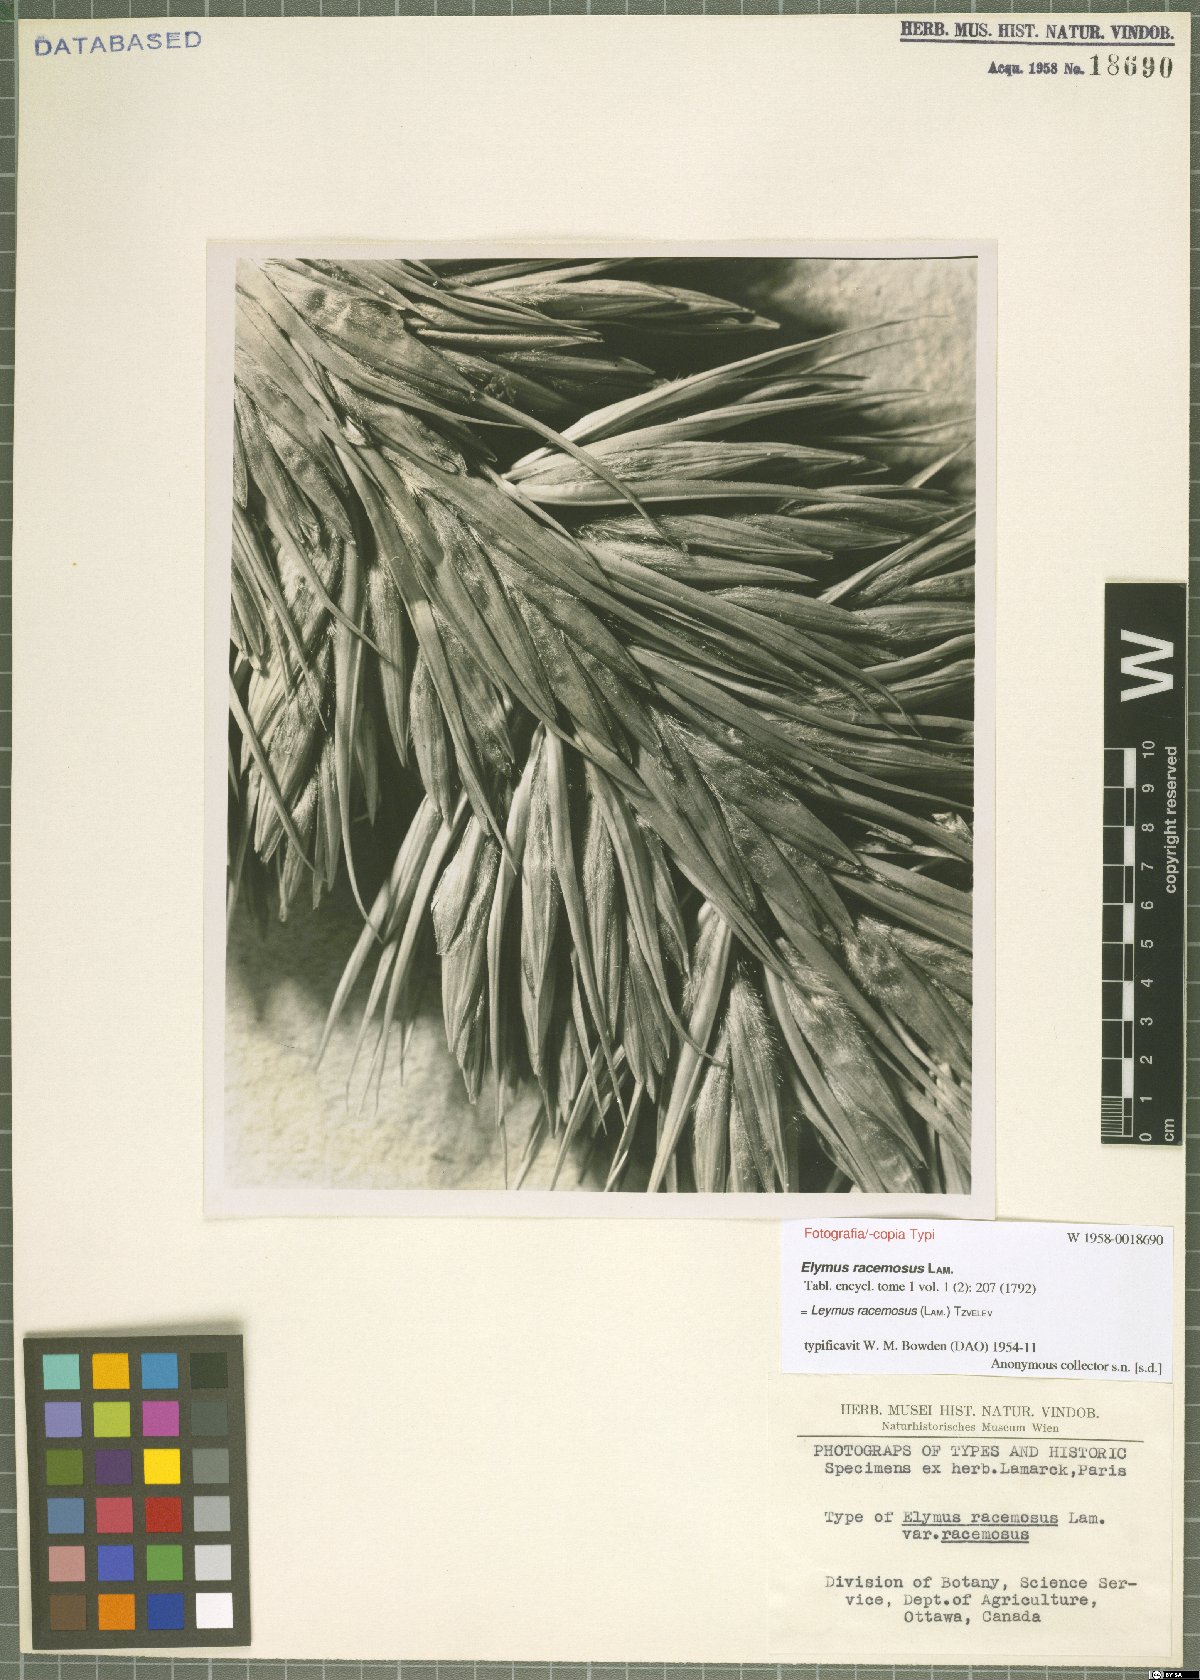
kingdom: Plantae
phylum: Tracheophyta
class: Liliopsida
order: Poales
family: Poaceae
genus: Leymus
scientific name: Leymus racemosus
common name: Mammoth wildrye
